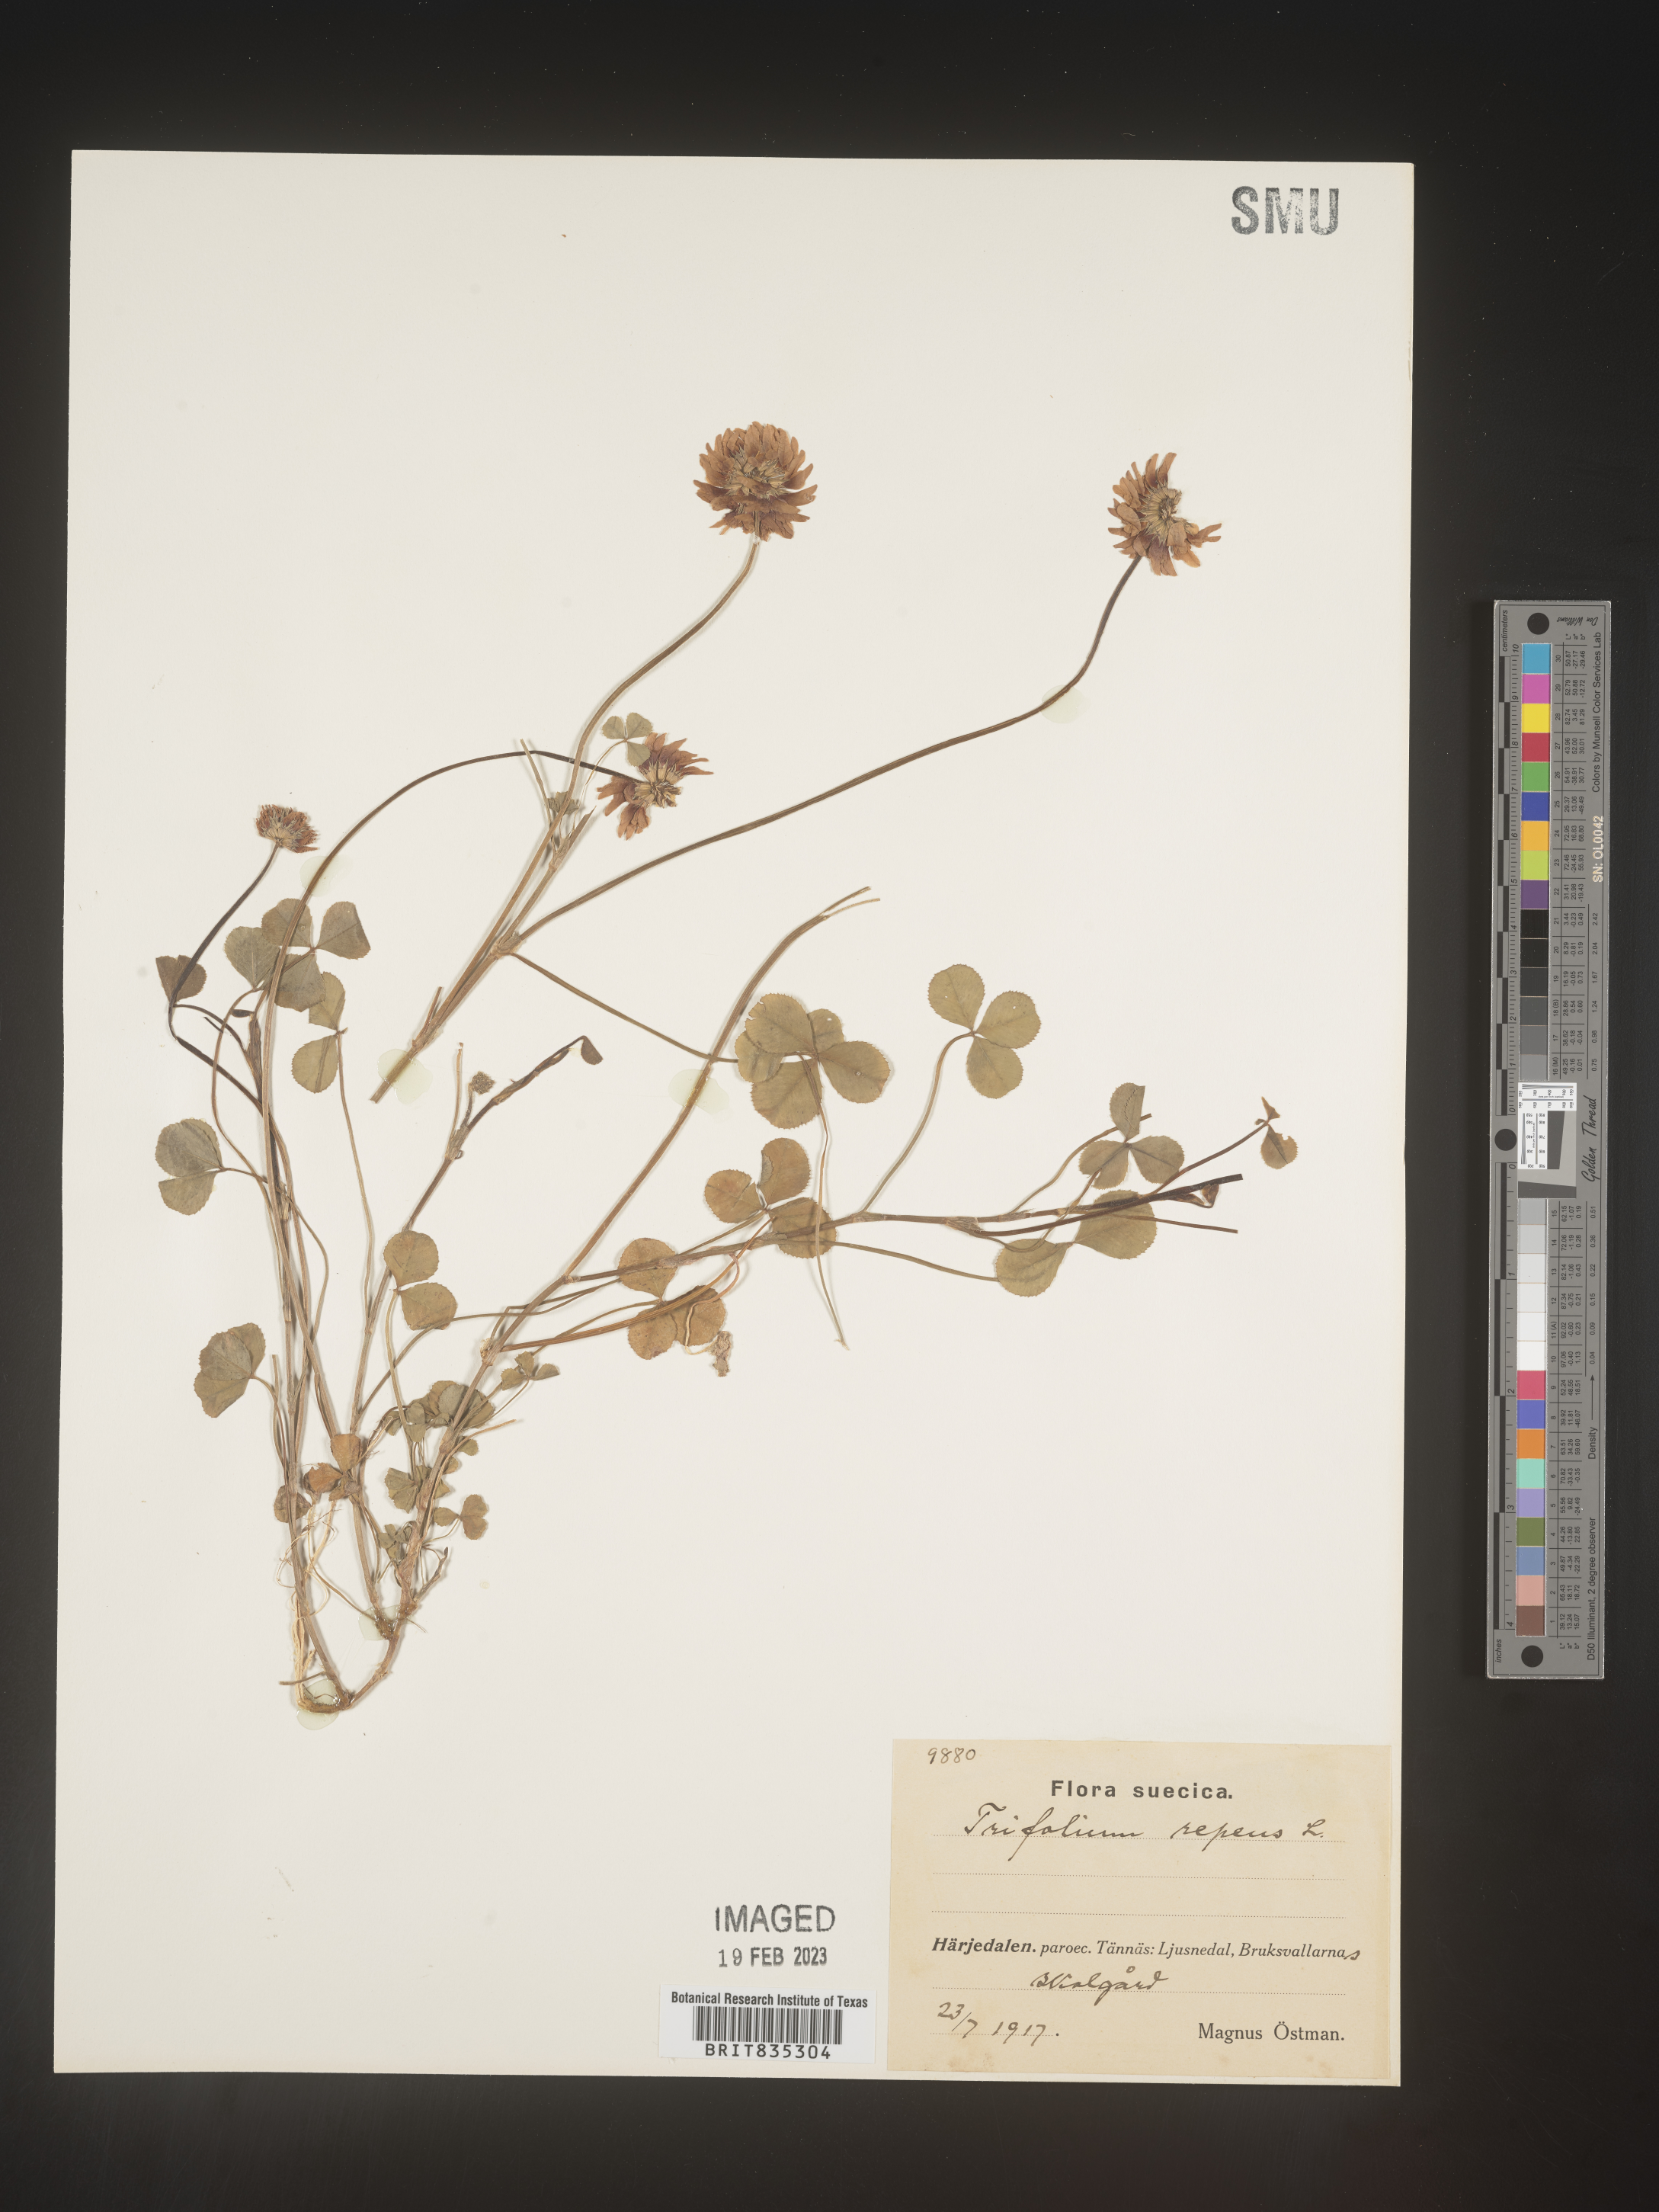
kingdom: Plantae
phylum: Tracheophyta
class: Magnoliopsida
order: Fabales
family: Fabaceae
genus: Trifolium
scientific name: Trifolium
